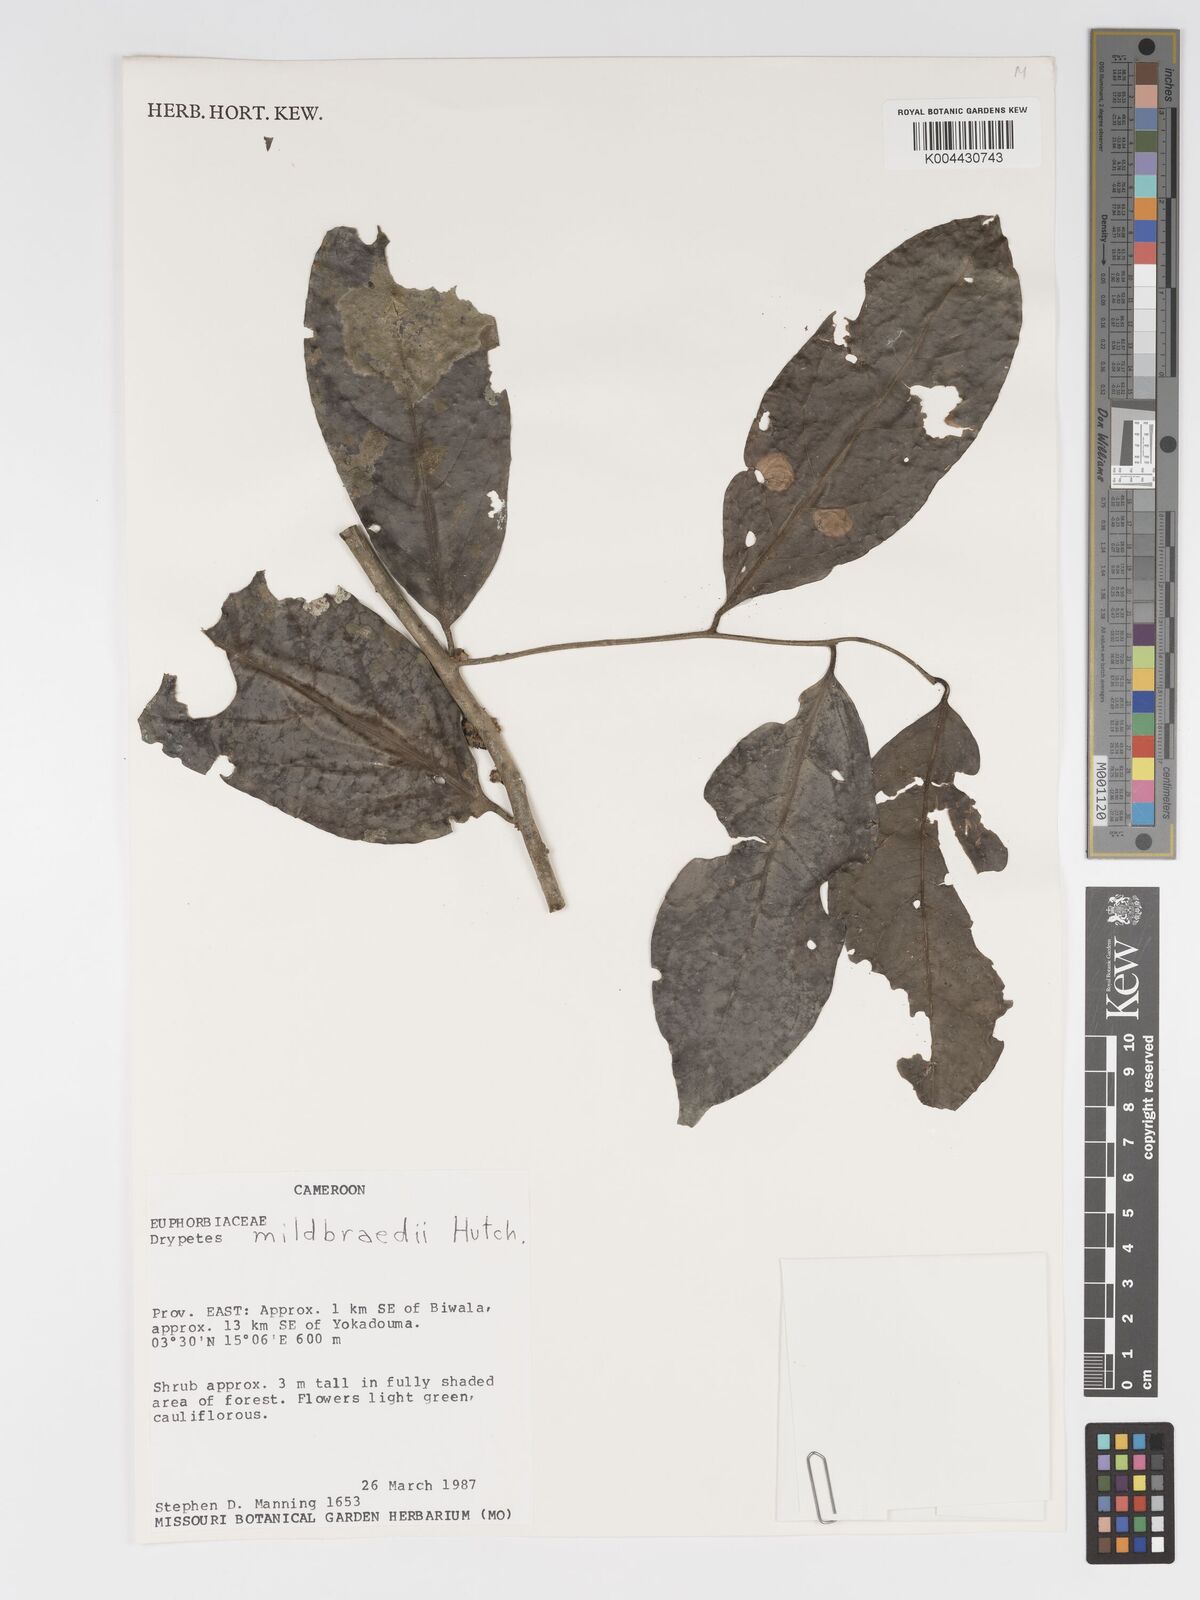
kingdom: Plantae
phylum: Tracheophyta
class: Magnoliopsida
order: Malpighiales
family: Putranjivaceae
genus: Drypetes
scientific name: Drypetes mildbraedii
